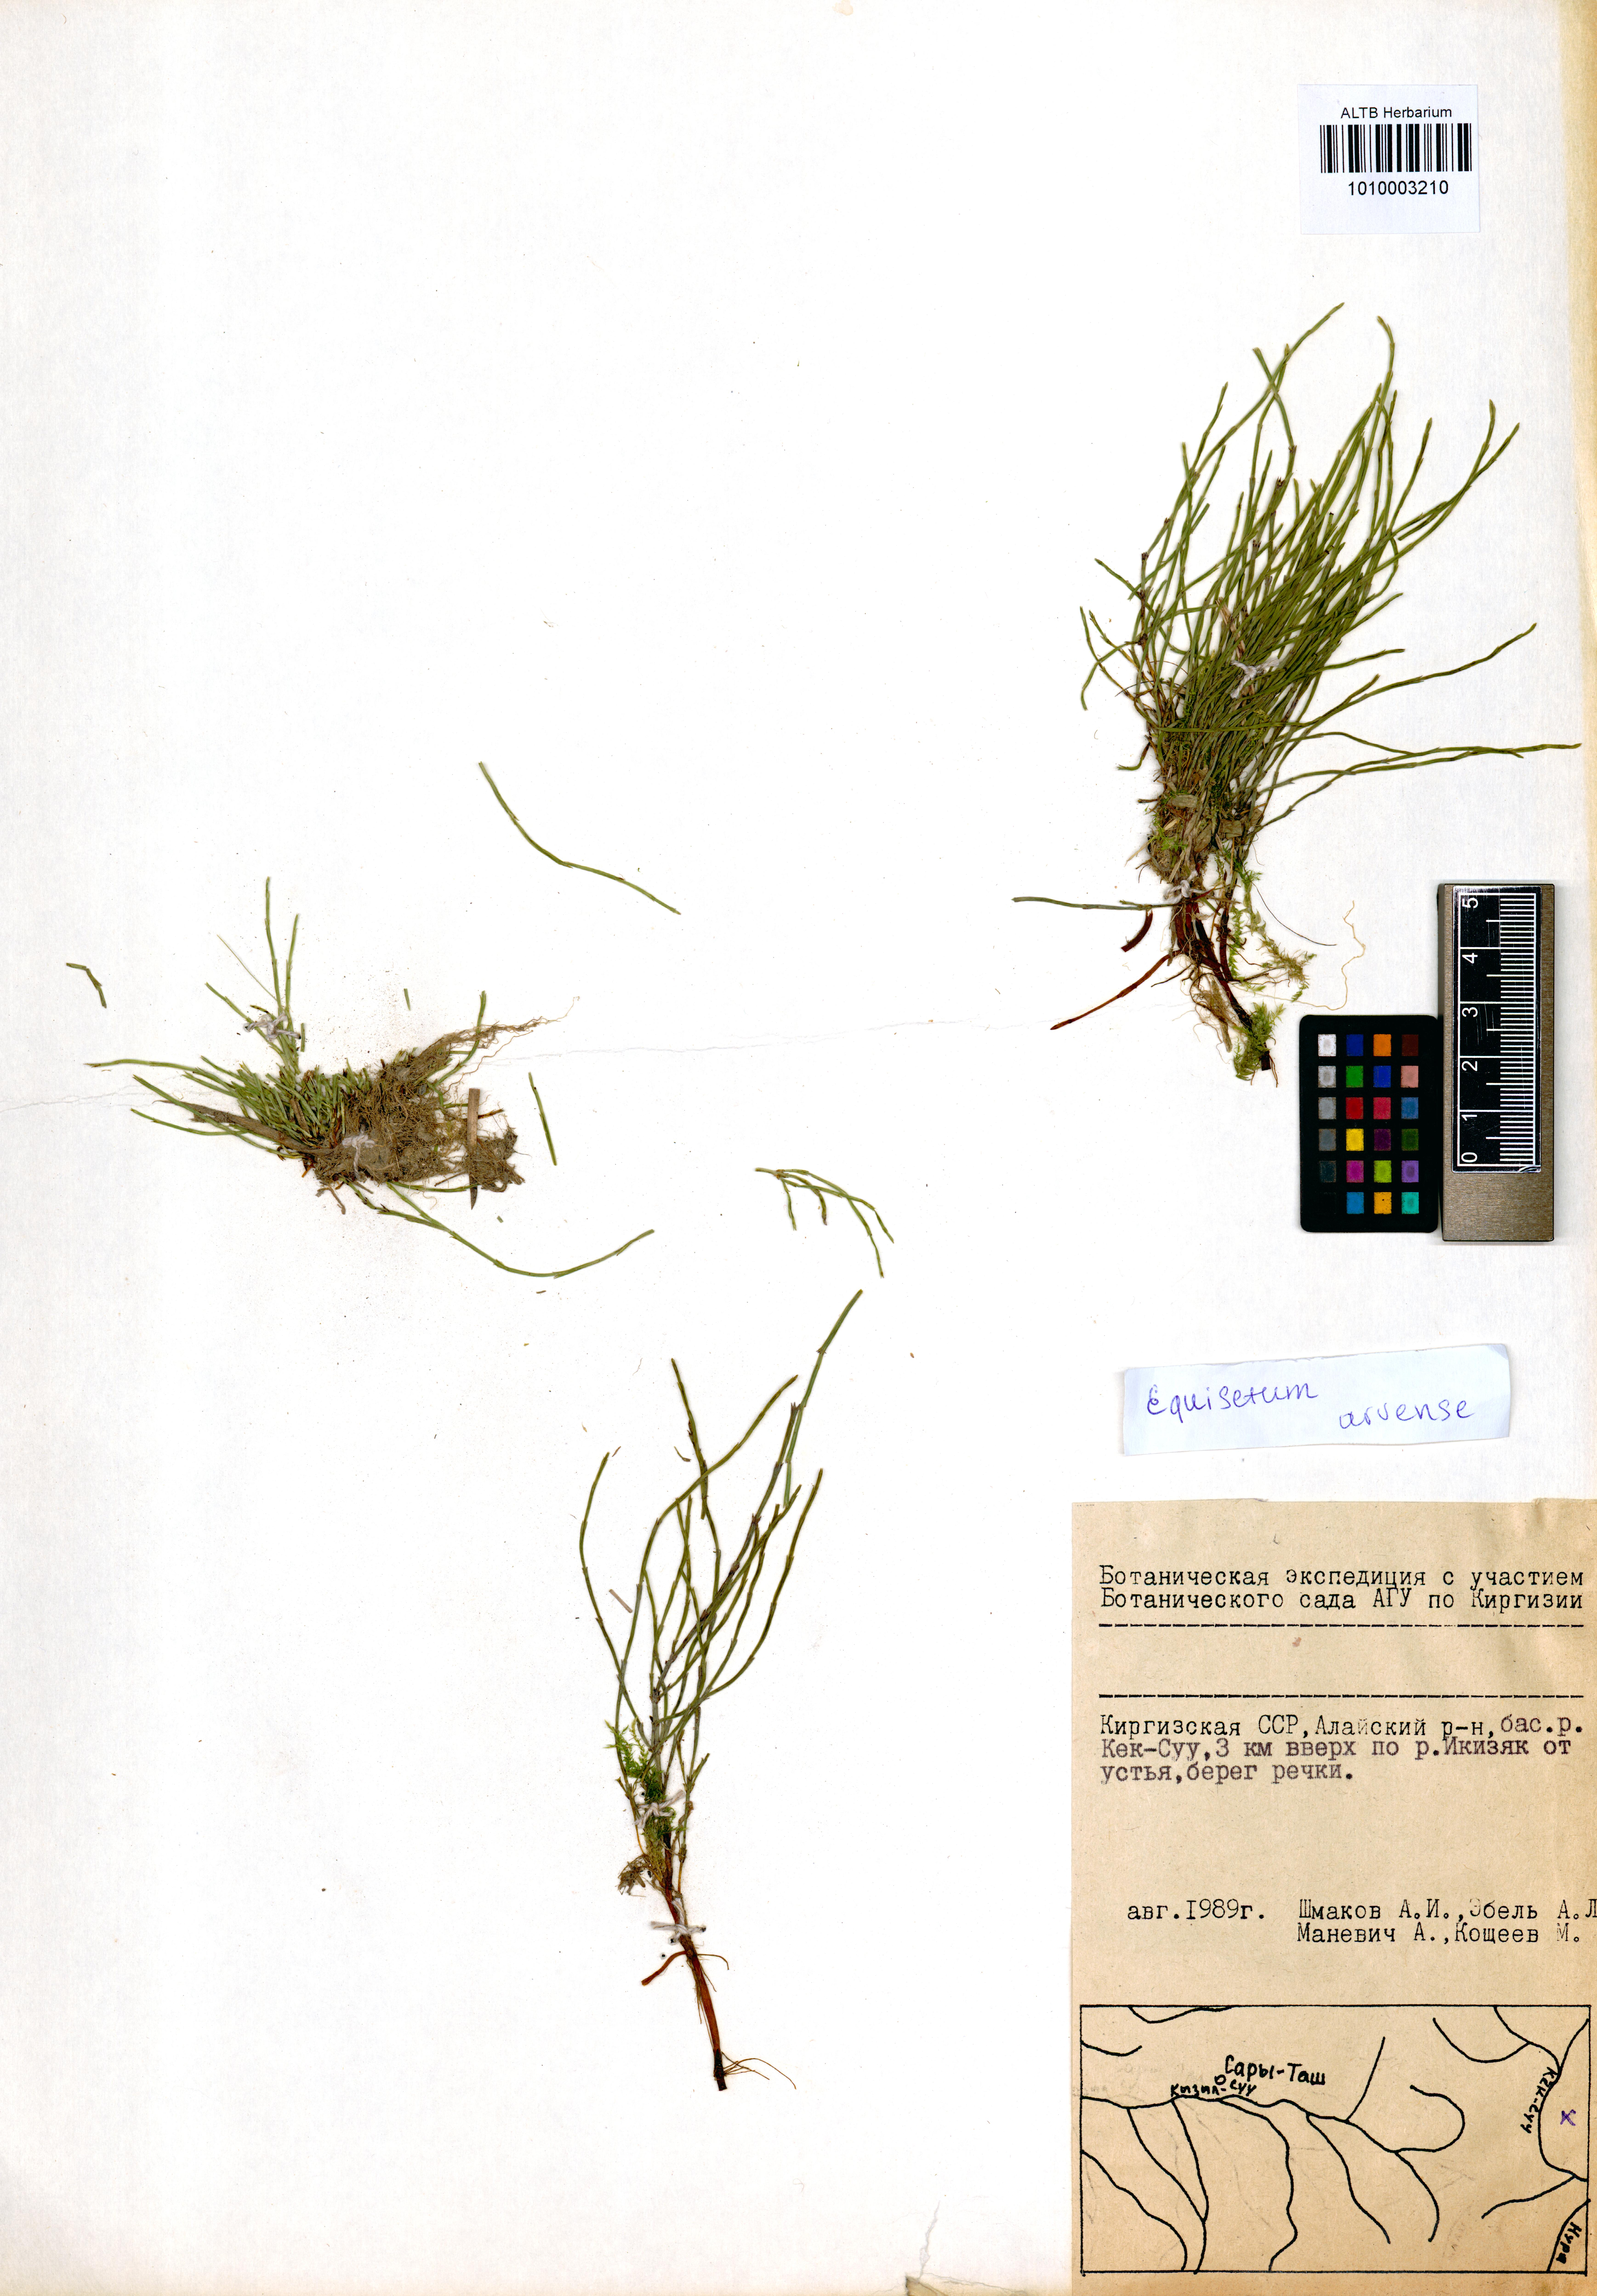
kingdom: Plantae
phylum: Tracheophyta
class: Polypodiopsida
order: Equisetales
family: Equisetaceae
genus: Equisetum
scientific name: Equisetum arvense
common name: Field horsetail
